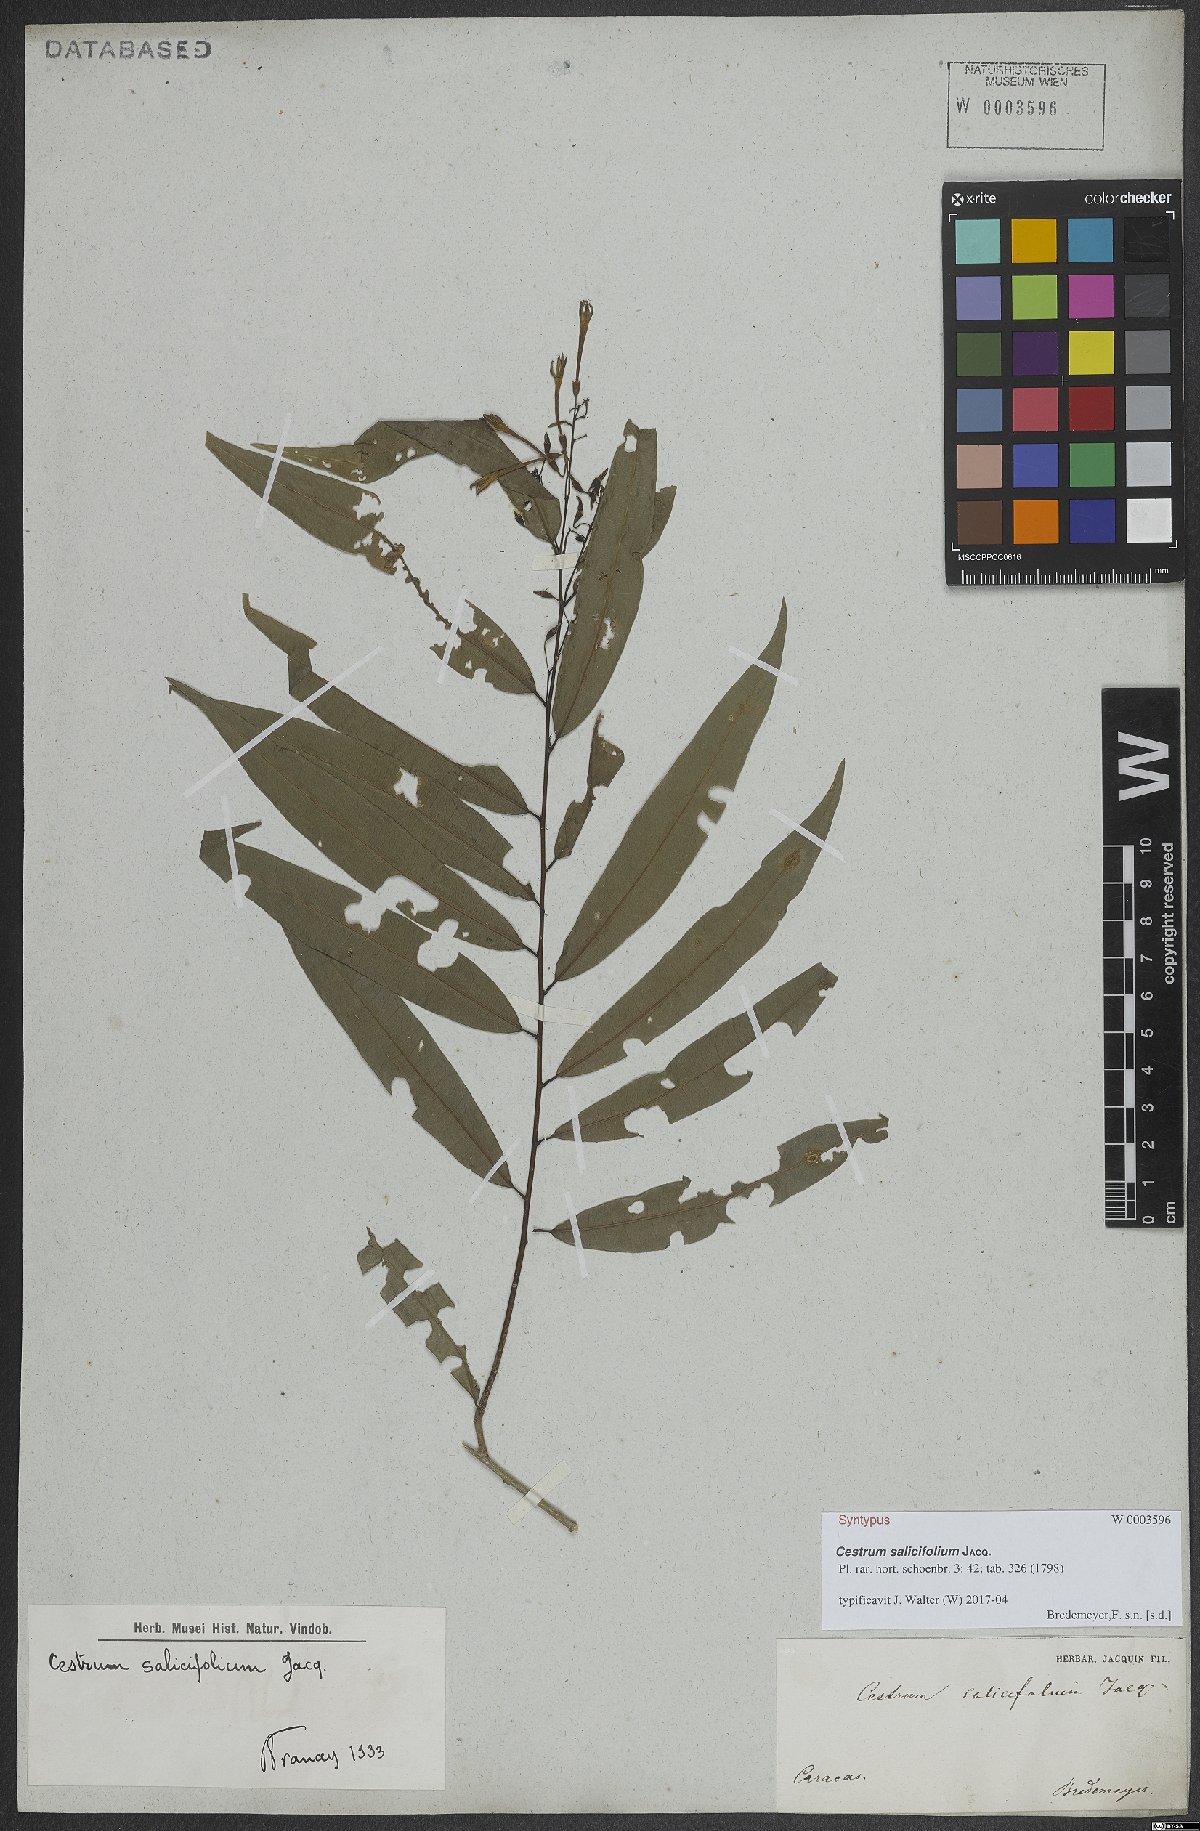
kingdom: Plantae
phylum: Tracheophyta
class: Magnoliopsida
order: Solanales
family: Solanaceae
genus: Cestrum
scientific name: Cestrum salicifolium
